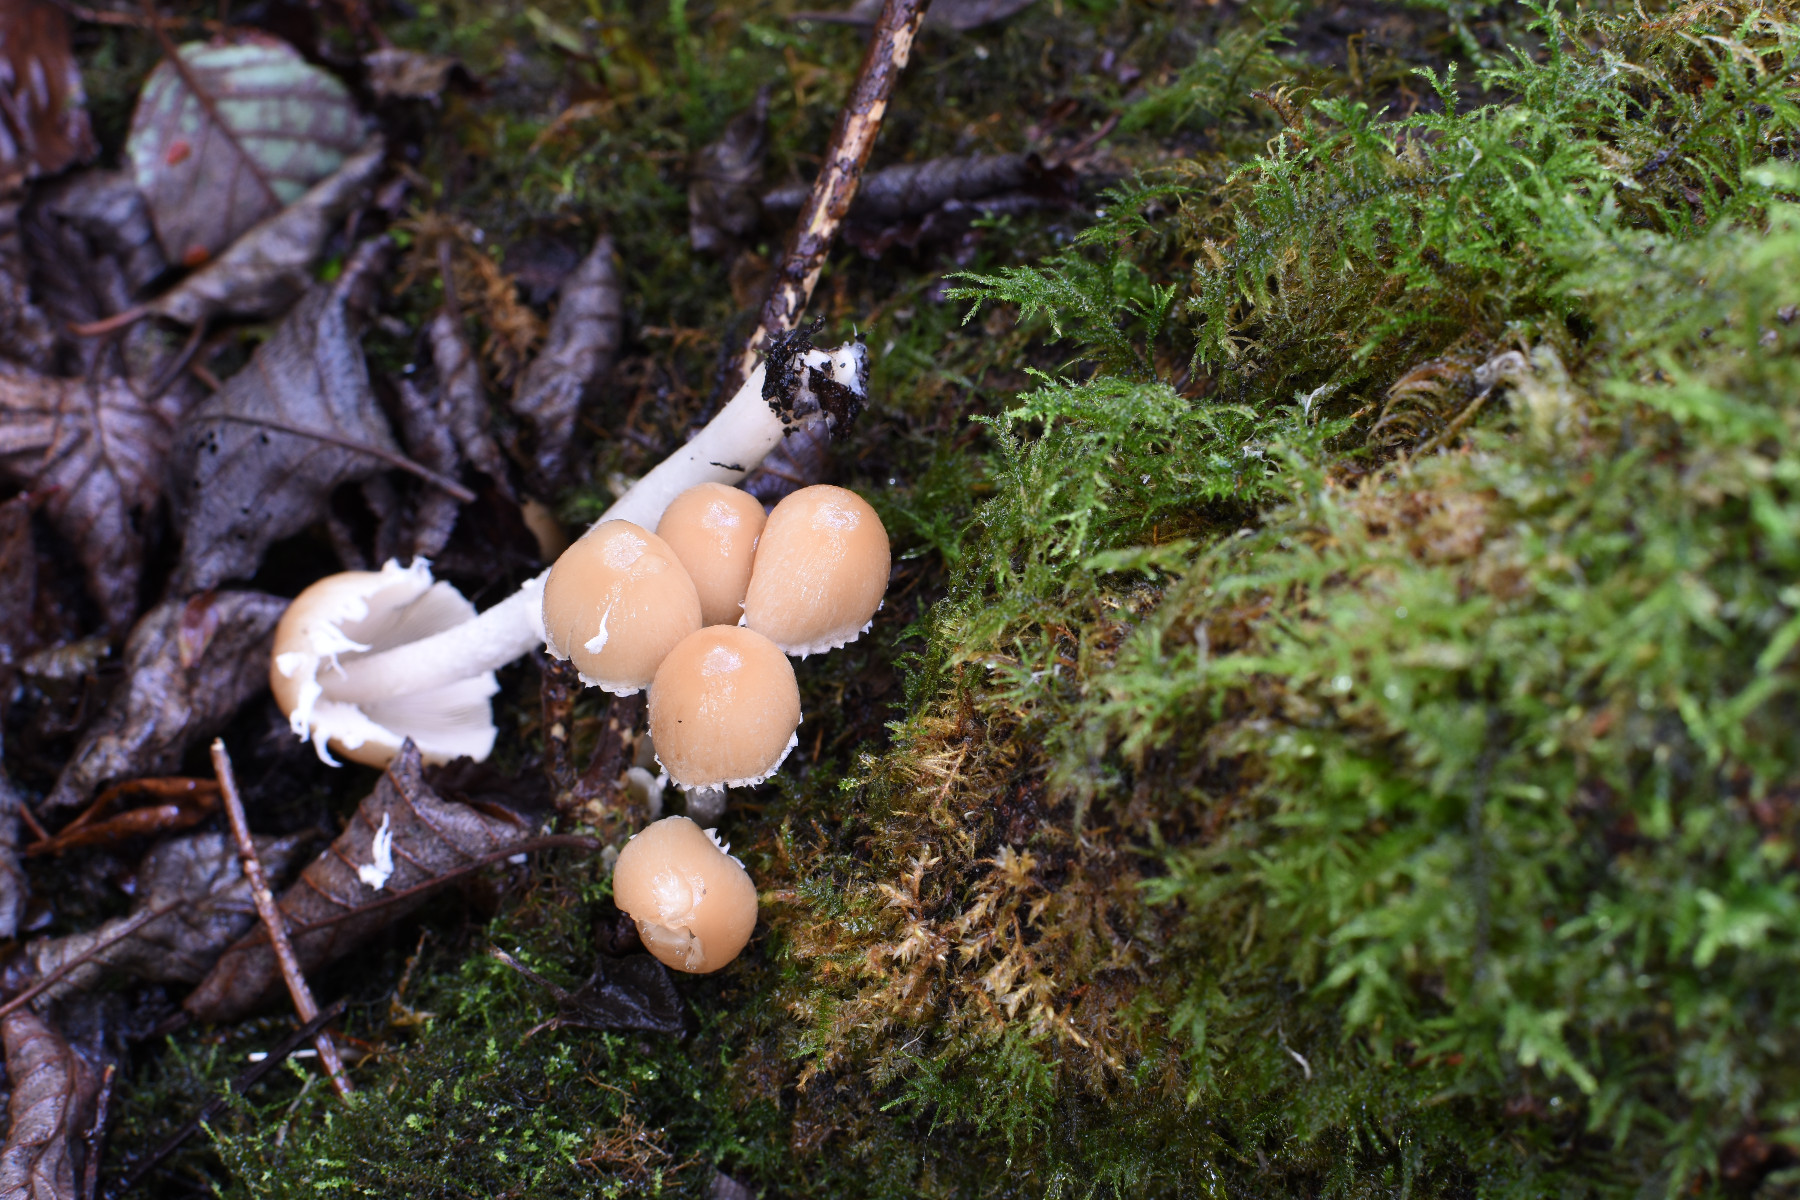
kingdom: Fungi
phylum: Basidiomycota
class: Agaricomycetes
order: Agaricales
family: Psathyrellaceae
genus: Candolleomyces
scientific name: Candolleomyces candolleanus
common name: Candolles mørkhat
